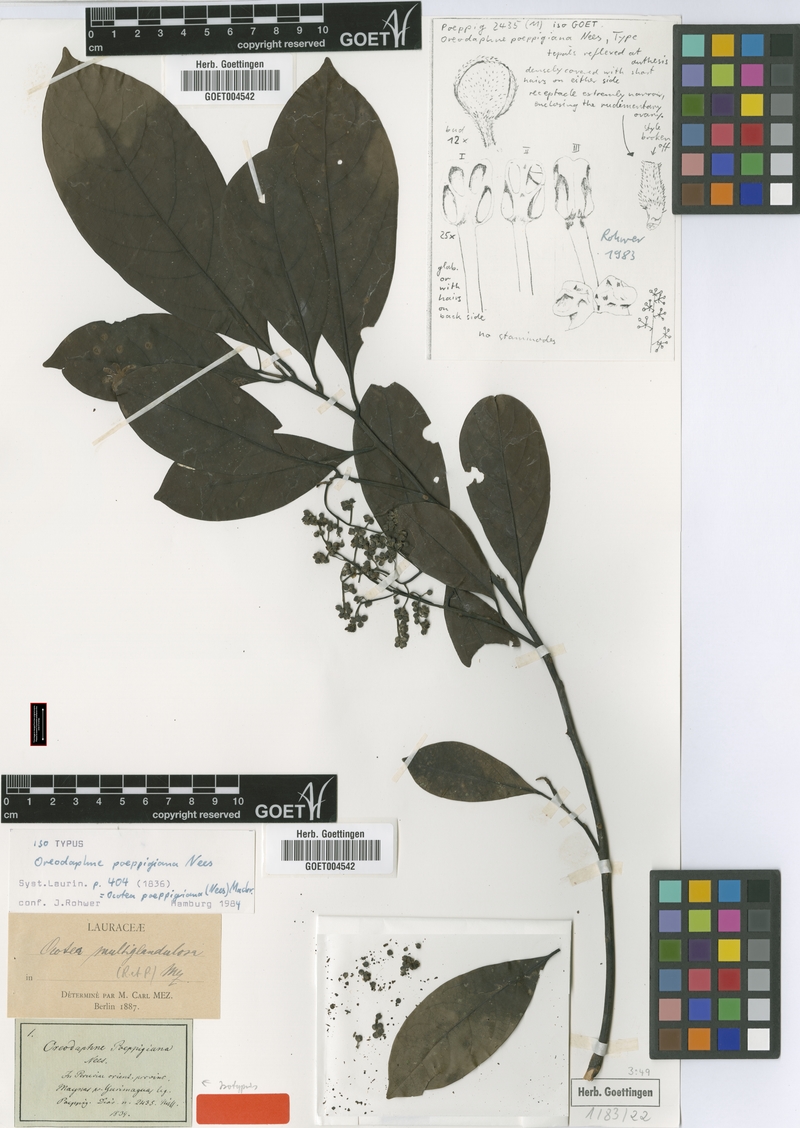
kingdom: Plantae
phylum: Tracheophyta
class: Magnoliopsida
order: Laurales
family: Lauraceae
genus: Ocotea
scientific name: Ocotea floribunda
